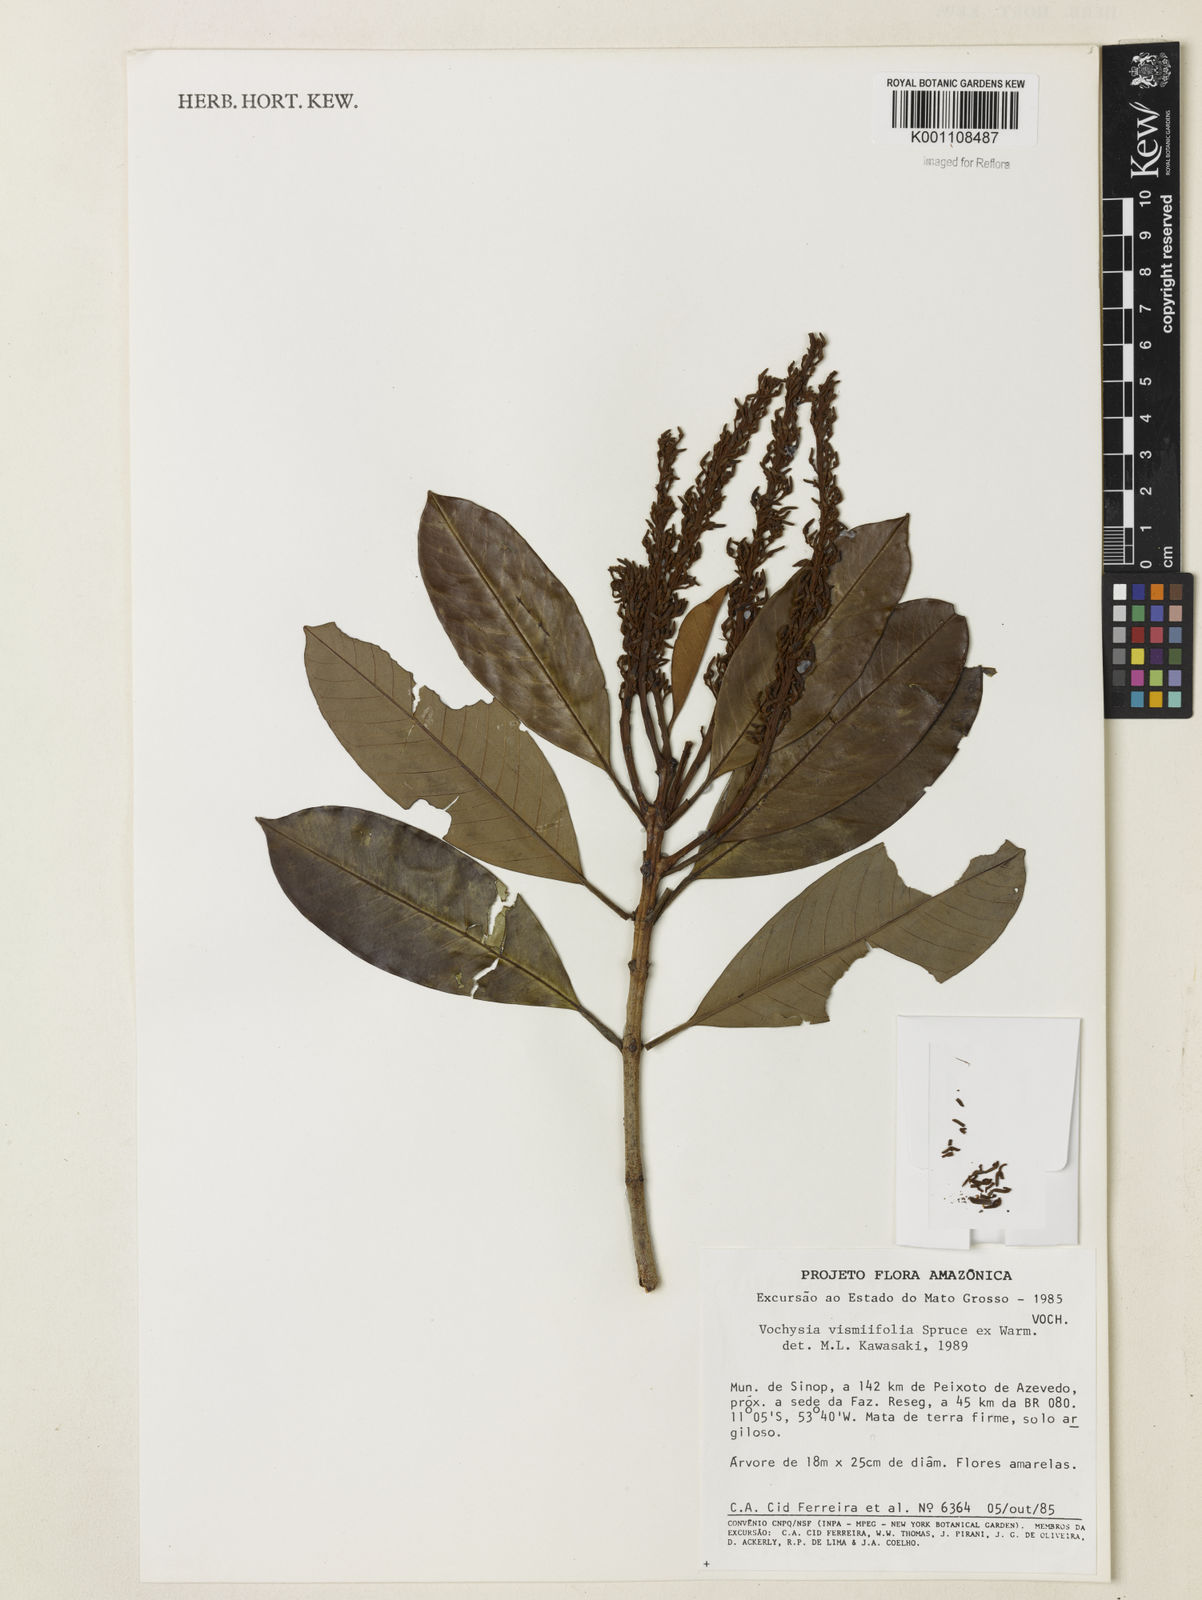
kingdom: Plantae
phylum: Tracheophyta
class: Magnoliopsida
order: Myrtales
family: Vochysiaceae
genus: Vochysia
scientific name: Vochysia vismiifolia
